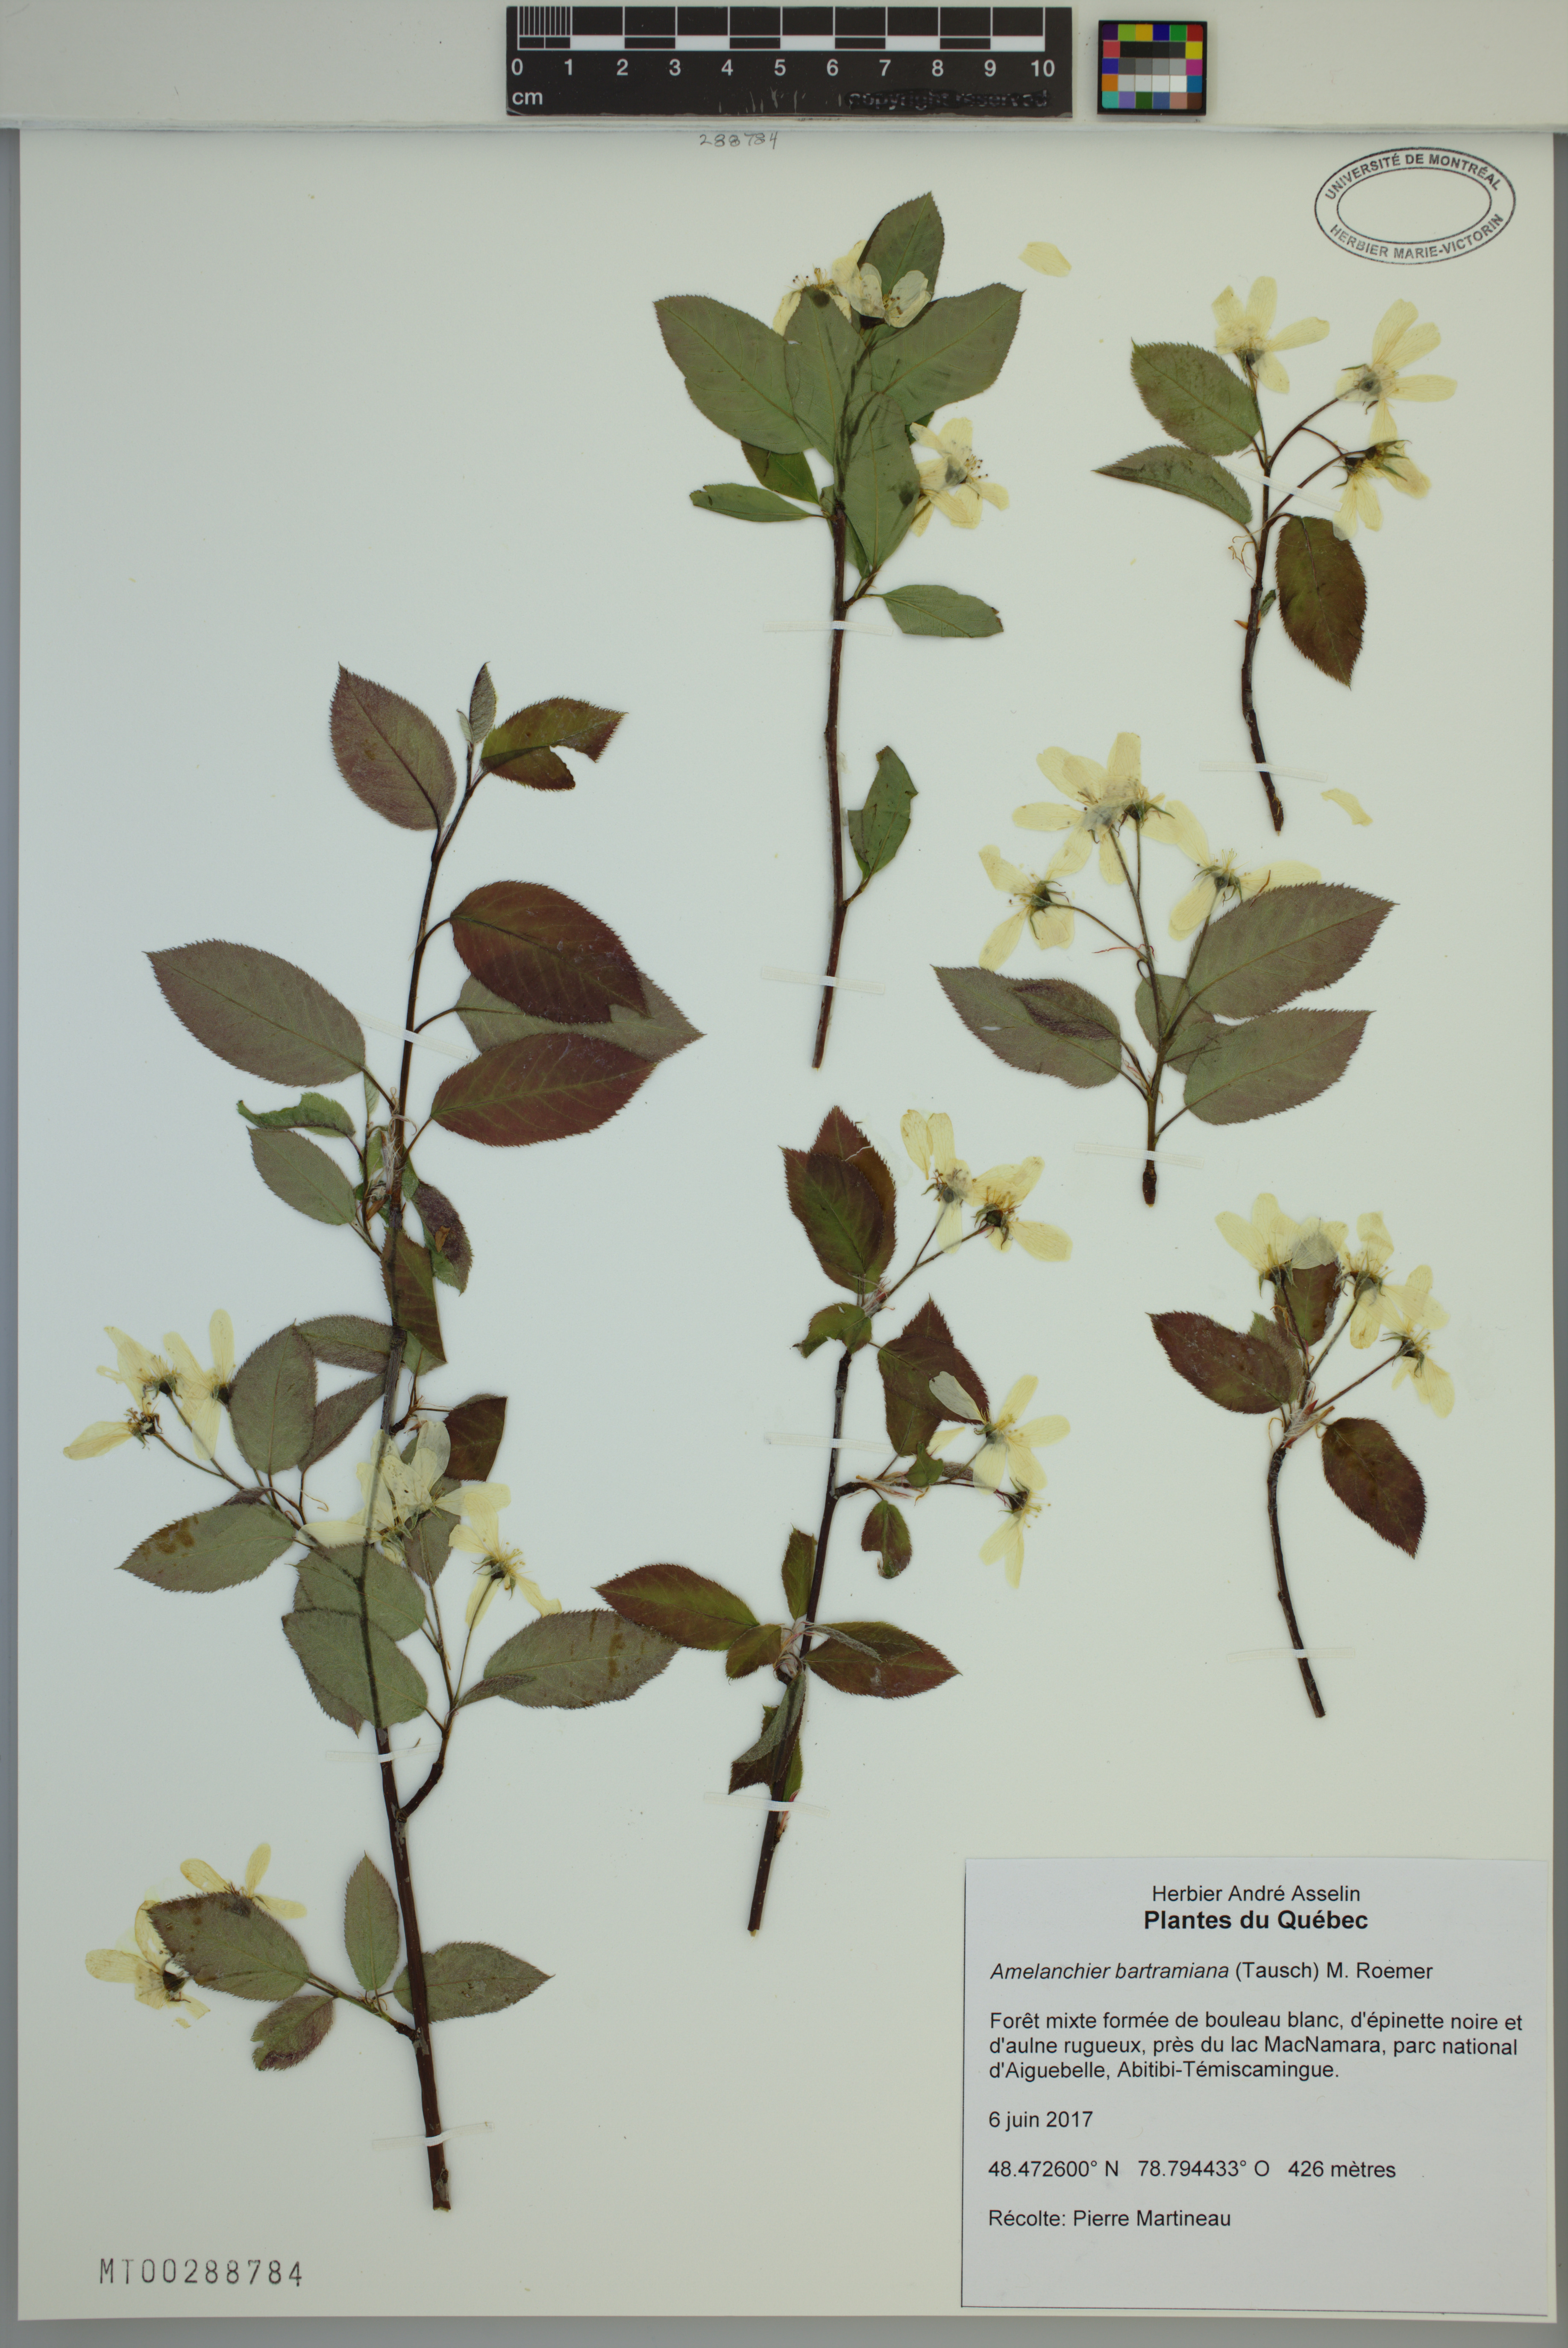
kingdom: Plantae
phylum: Tracheophyta
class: Magnoliopsida
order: Rosales
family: Rosaceae
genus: Amelanchier
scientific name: Amelanchier bartramiana
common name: Mountain serviceberry
